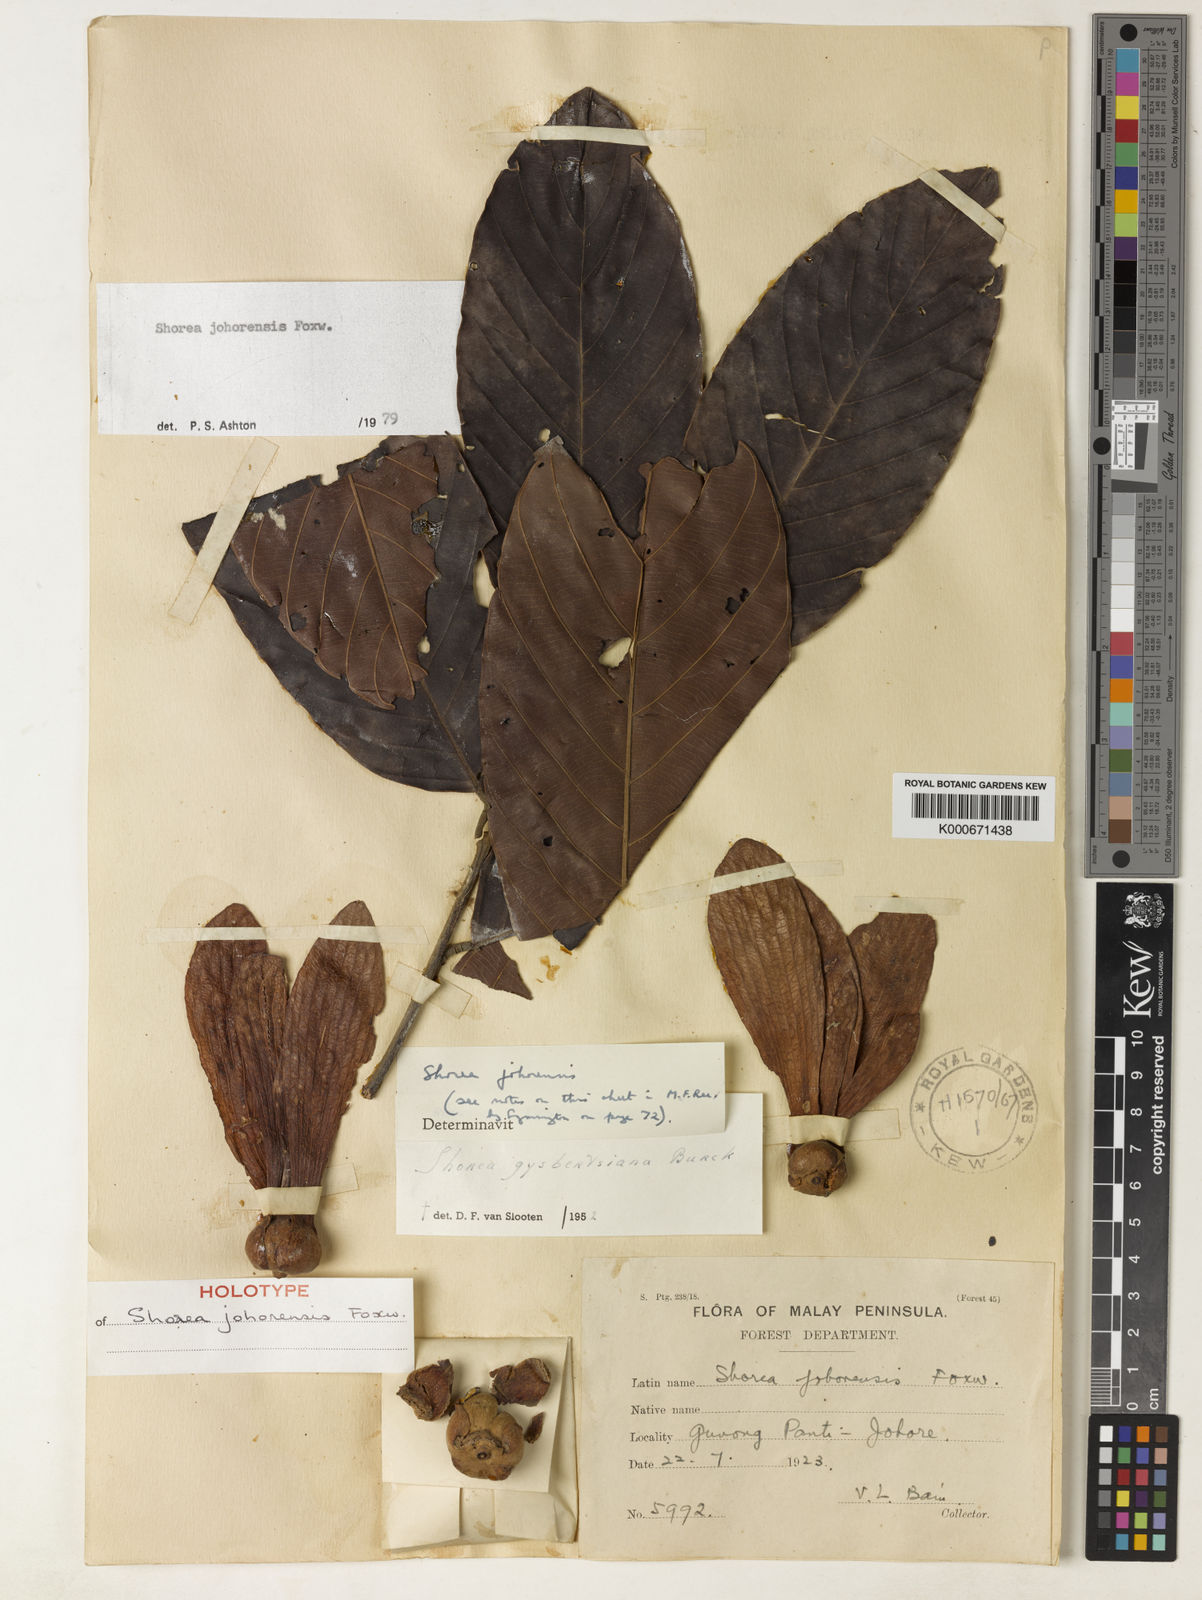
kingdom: Plantae
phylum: Tracheophyta
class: Magnoliopsida
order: Malvales
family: Dipterocarpaceae
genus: Shorea
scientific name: Shorea johorensis
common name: Light red meranti
